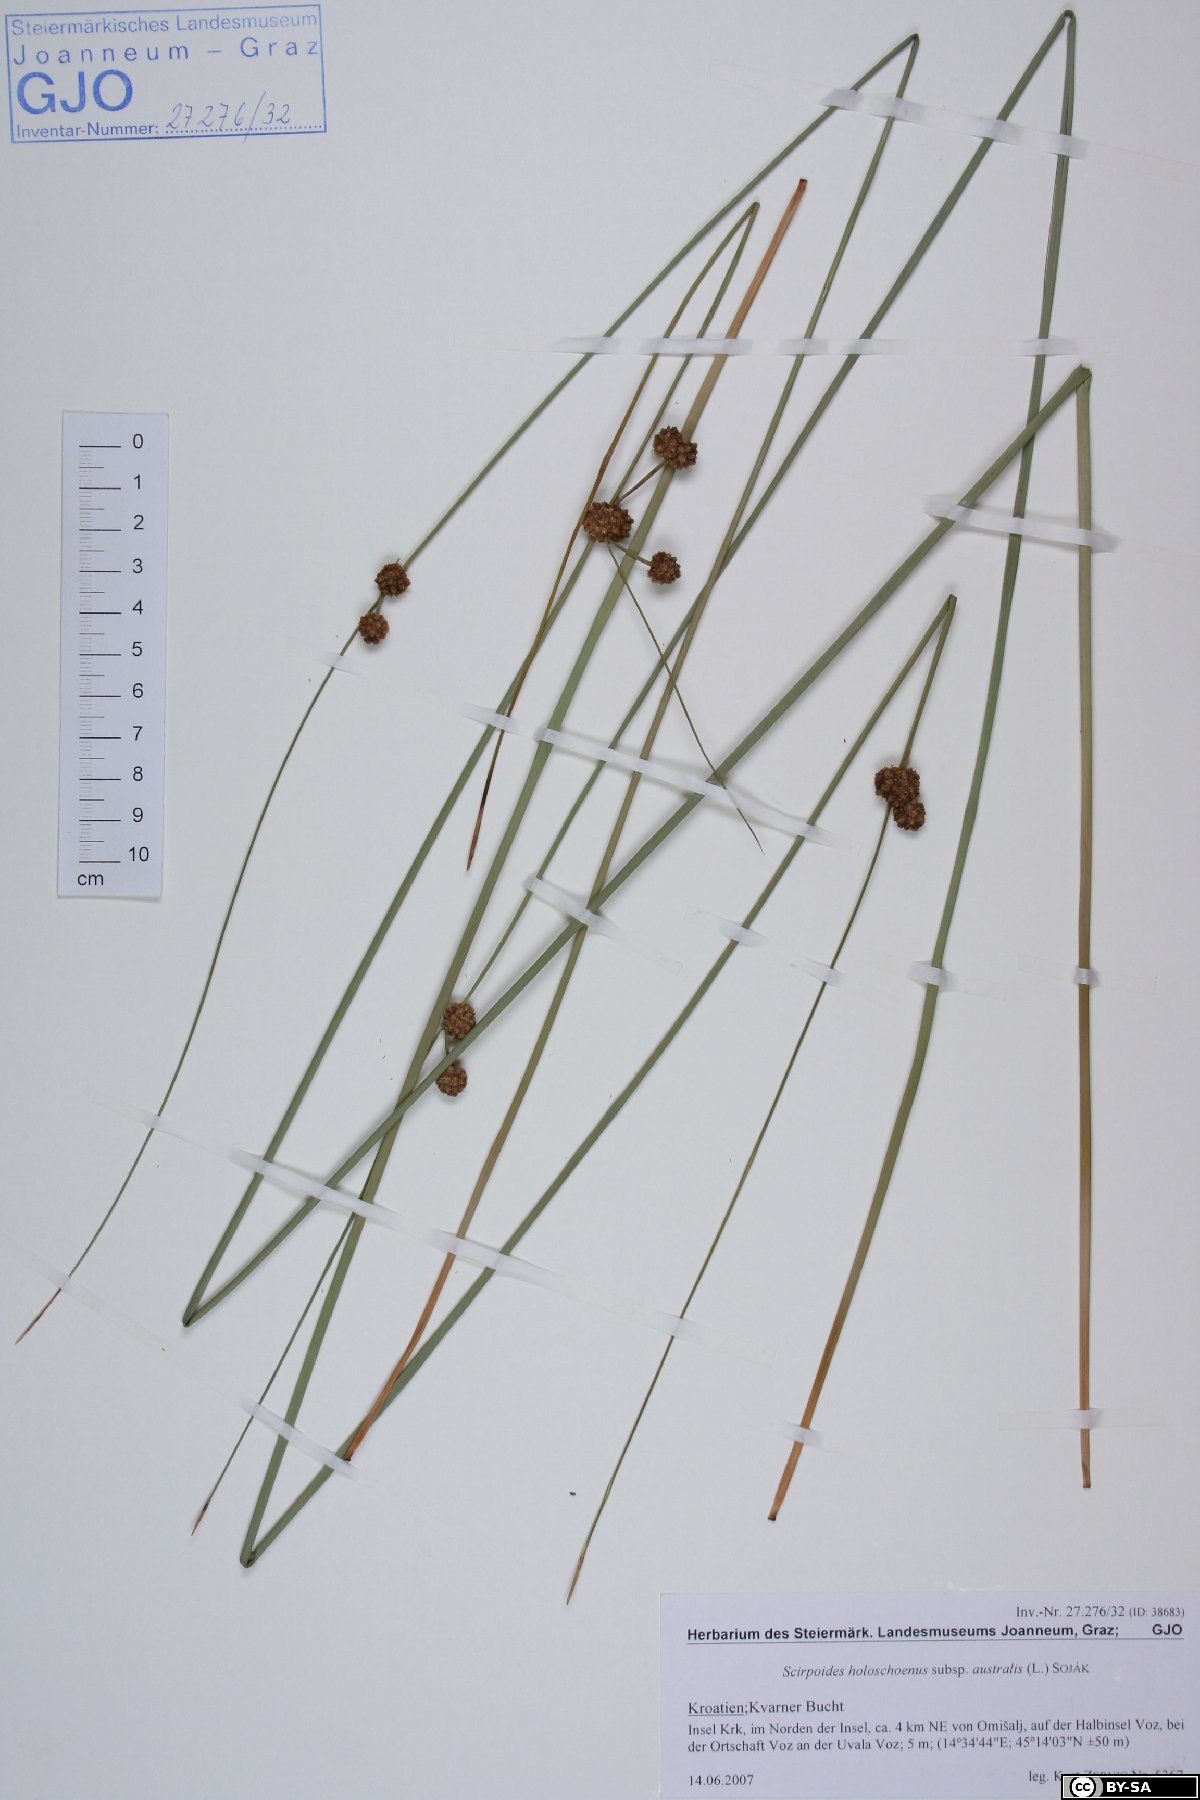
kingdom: Plantae
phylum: Tracheophyta
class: Liliopsida
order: Poales
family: Cyperaceae
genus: Scirpoides
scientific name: Scirpoides holoschoenus
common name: Round-headed club-rush
